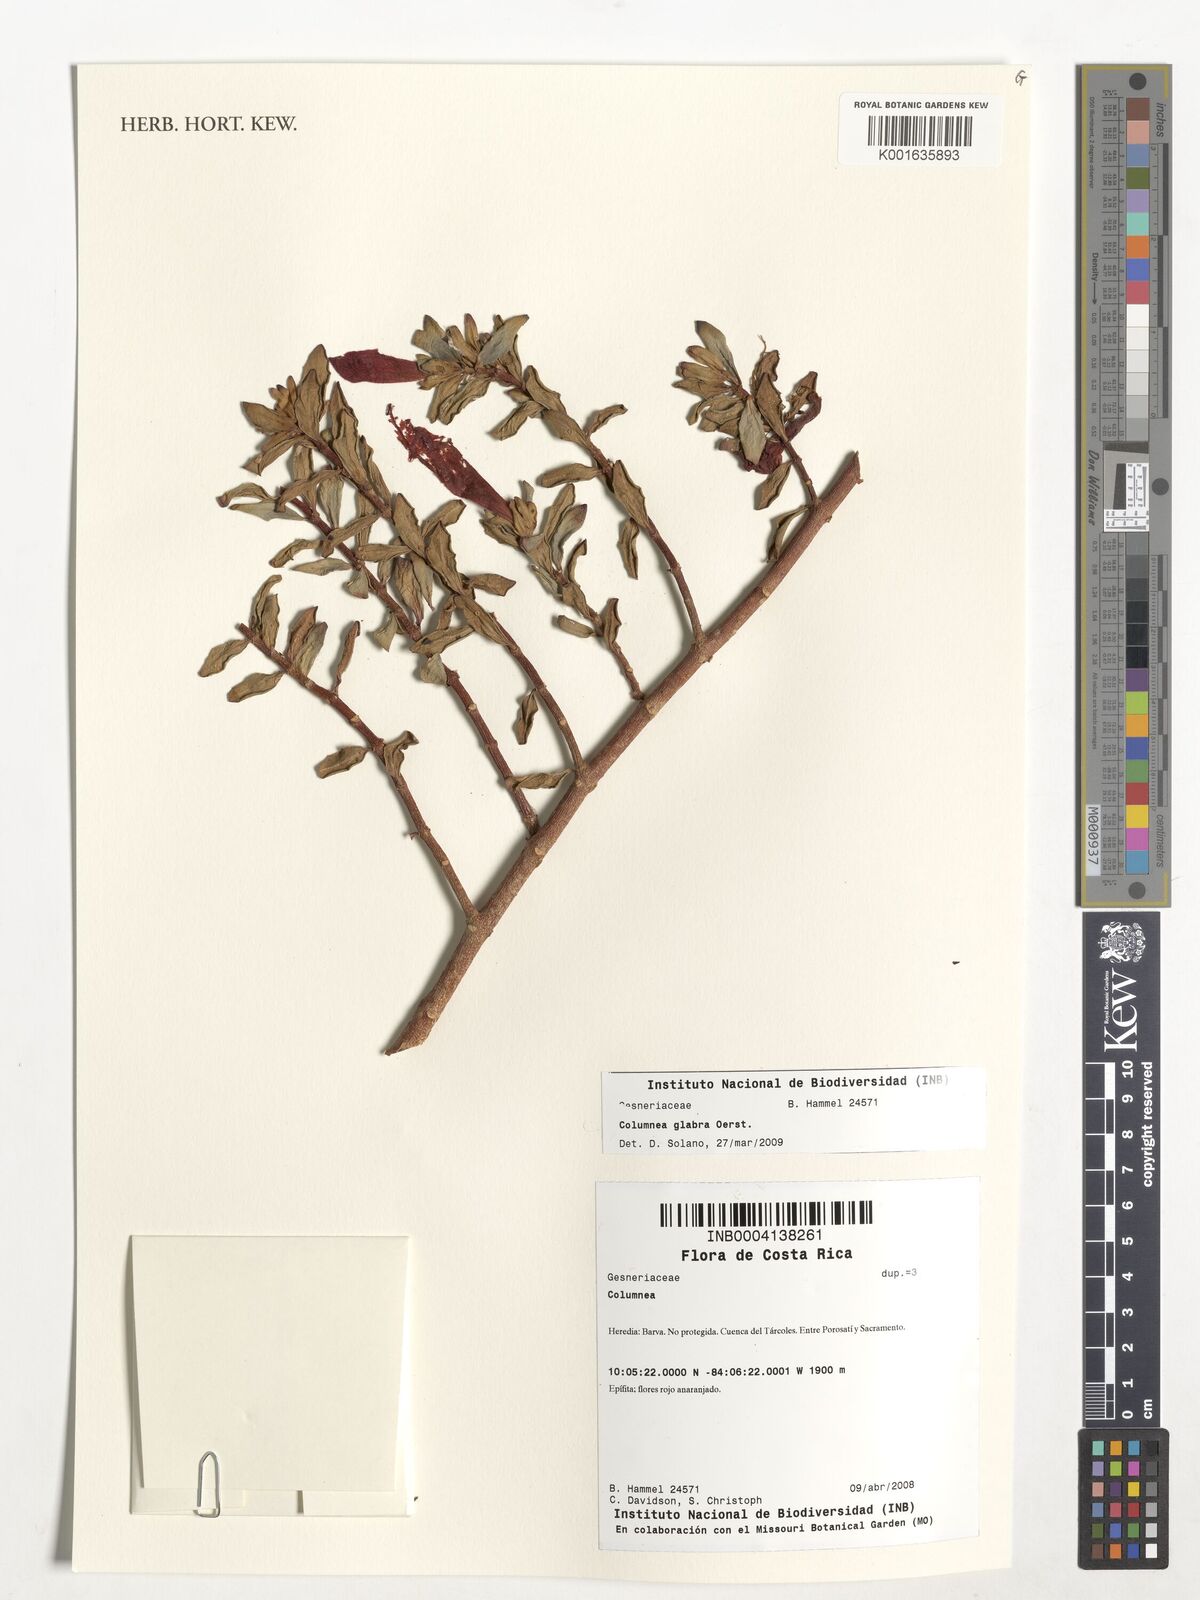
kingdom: Plantae
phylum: Tracheophyta
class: Magnoliopsida
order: Lamiales
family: Gesneriaceae
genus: Columnea
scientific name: Columnea glabra
